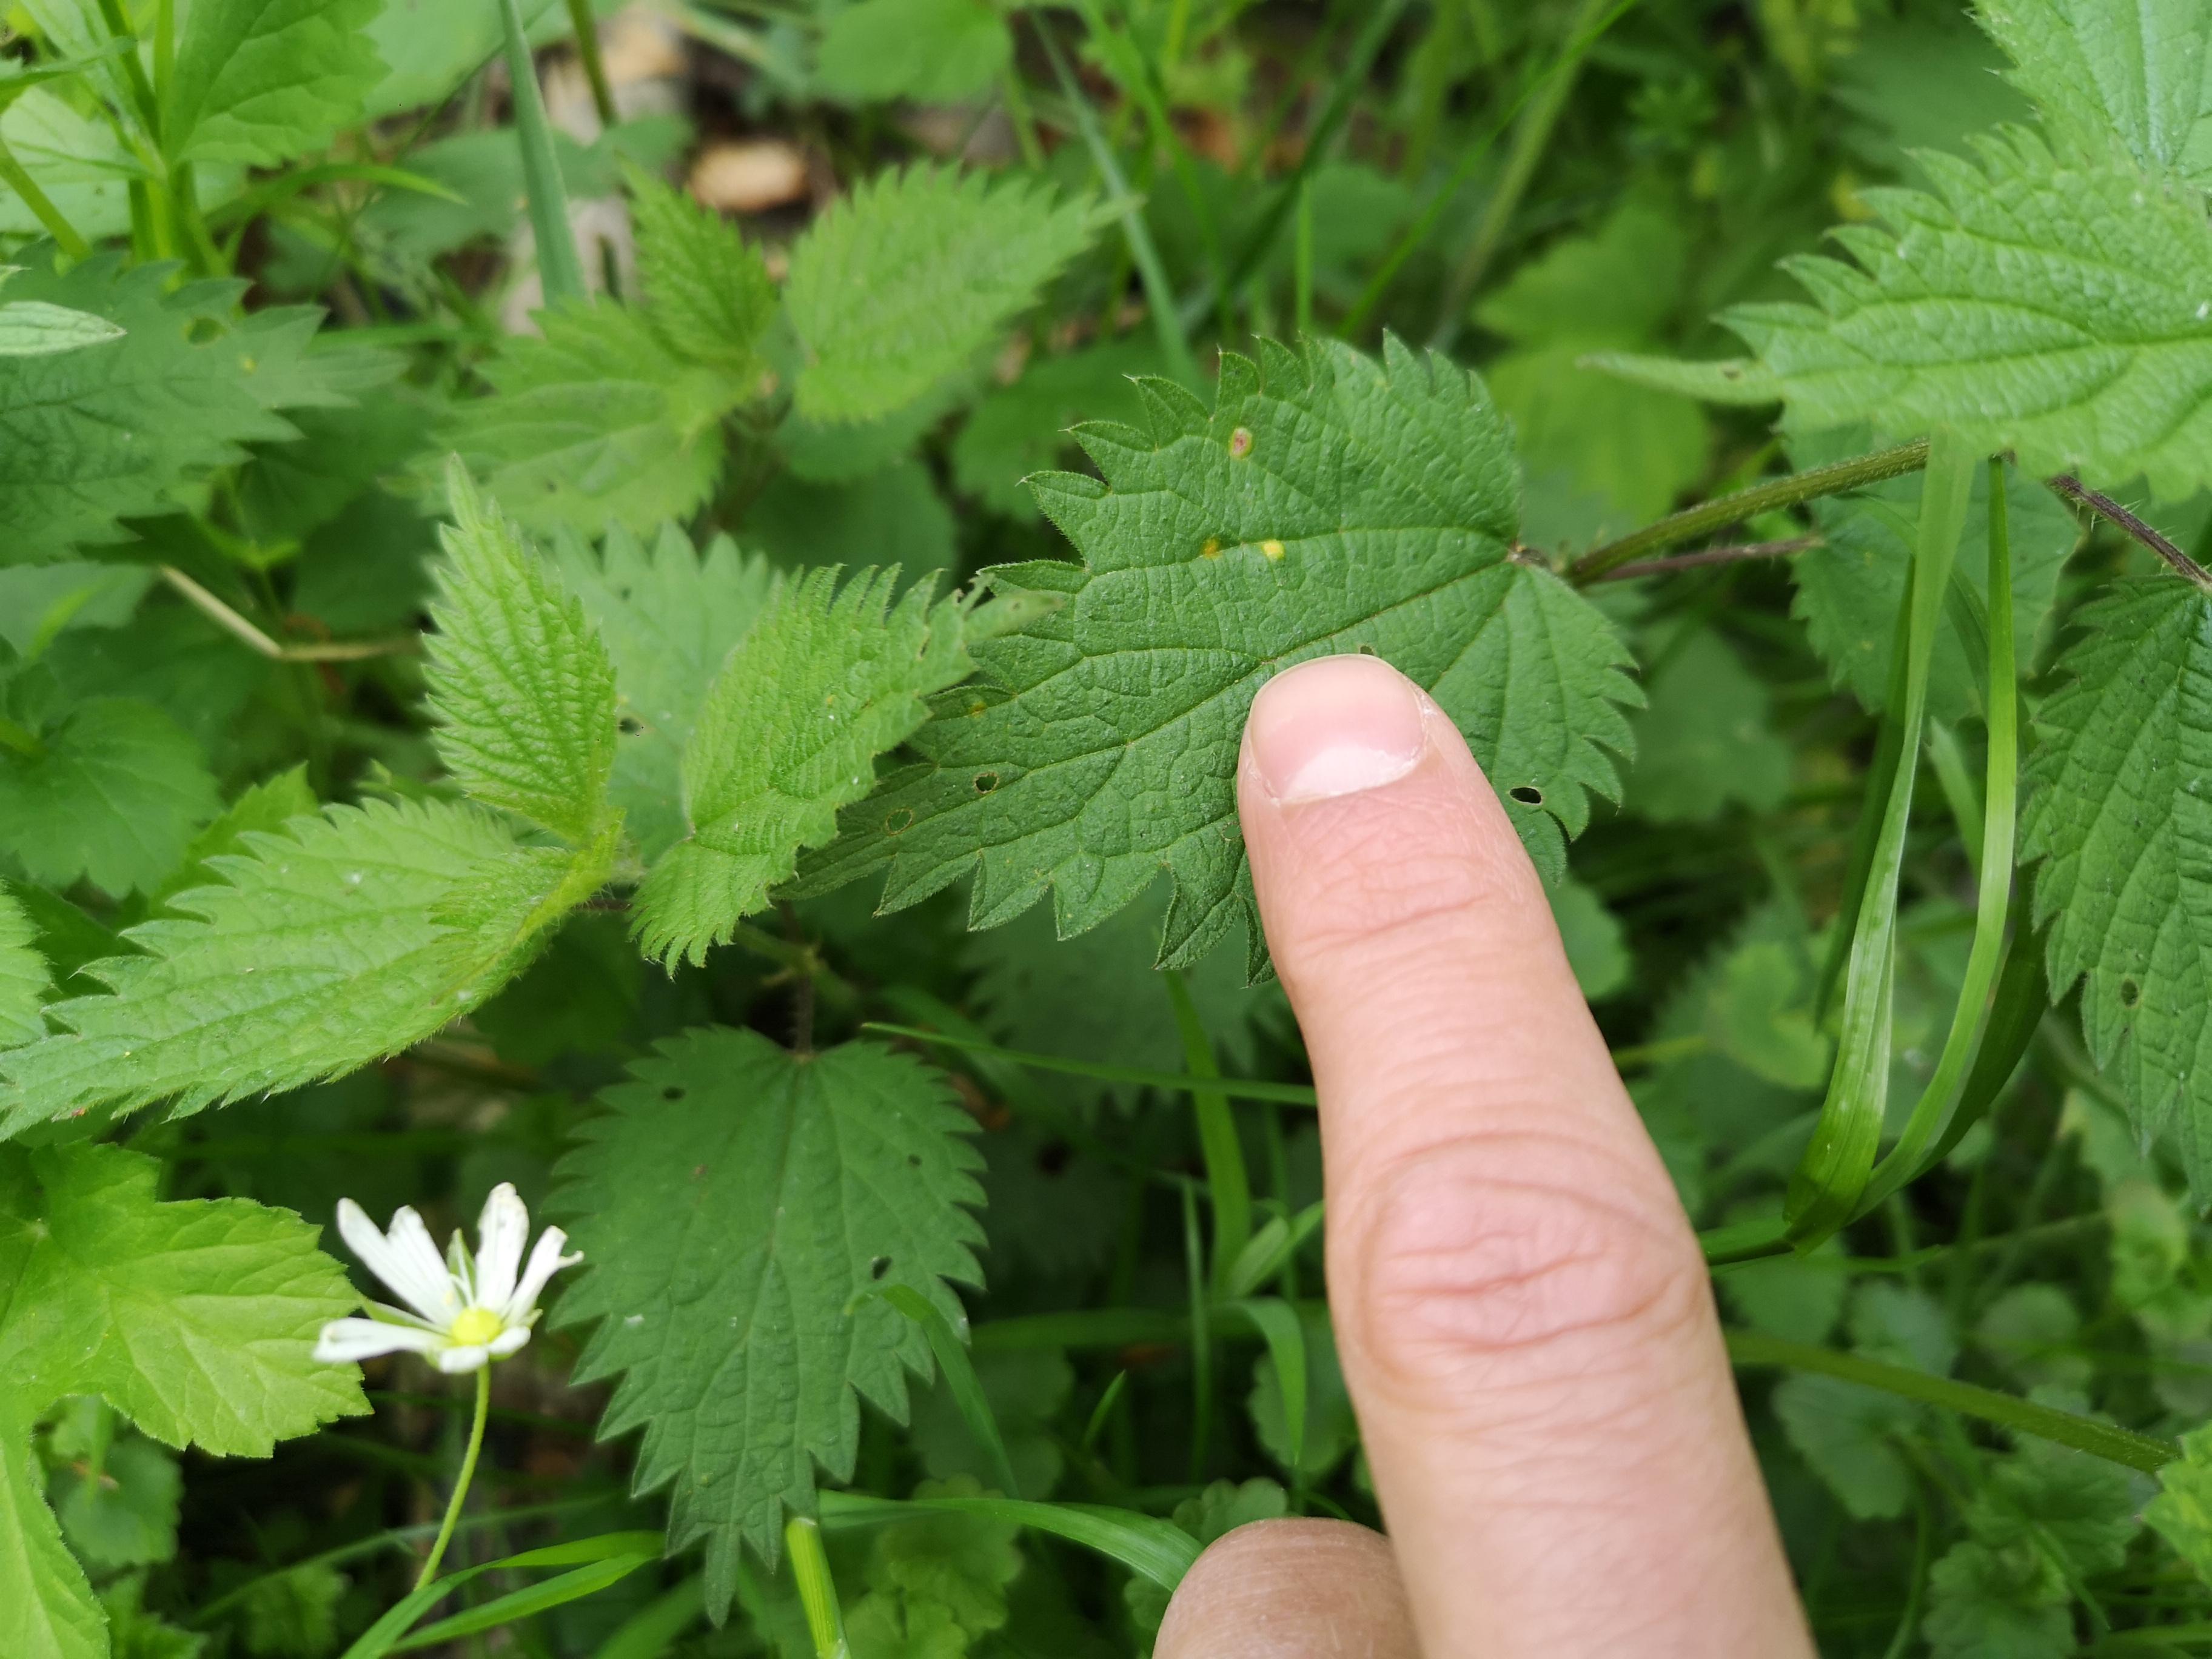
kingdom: Fungi
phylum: Basidiomycota
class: Pucciniomycetes
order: Pucciniales
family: Pucciniaceae
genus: Puccinia
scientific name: Puccinia
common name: tvecellerust
